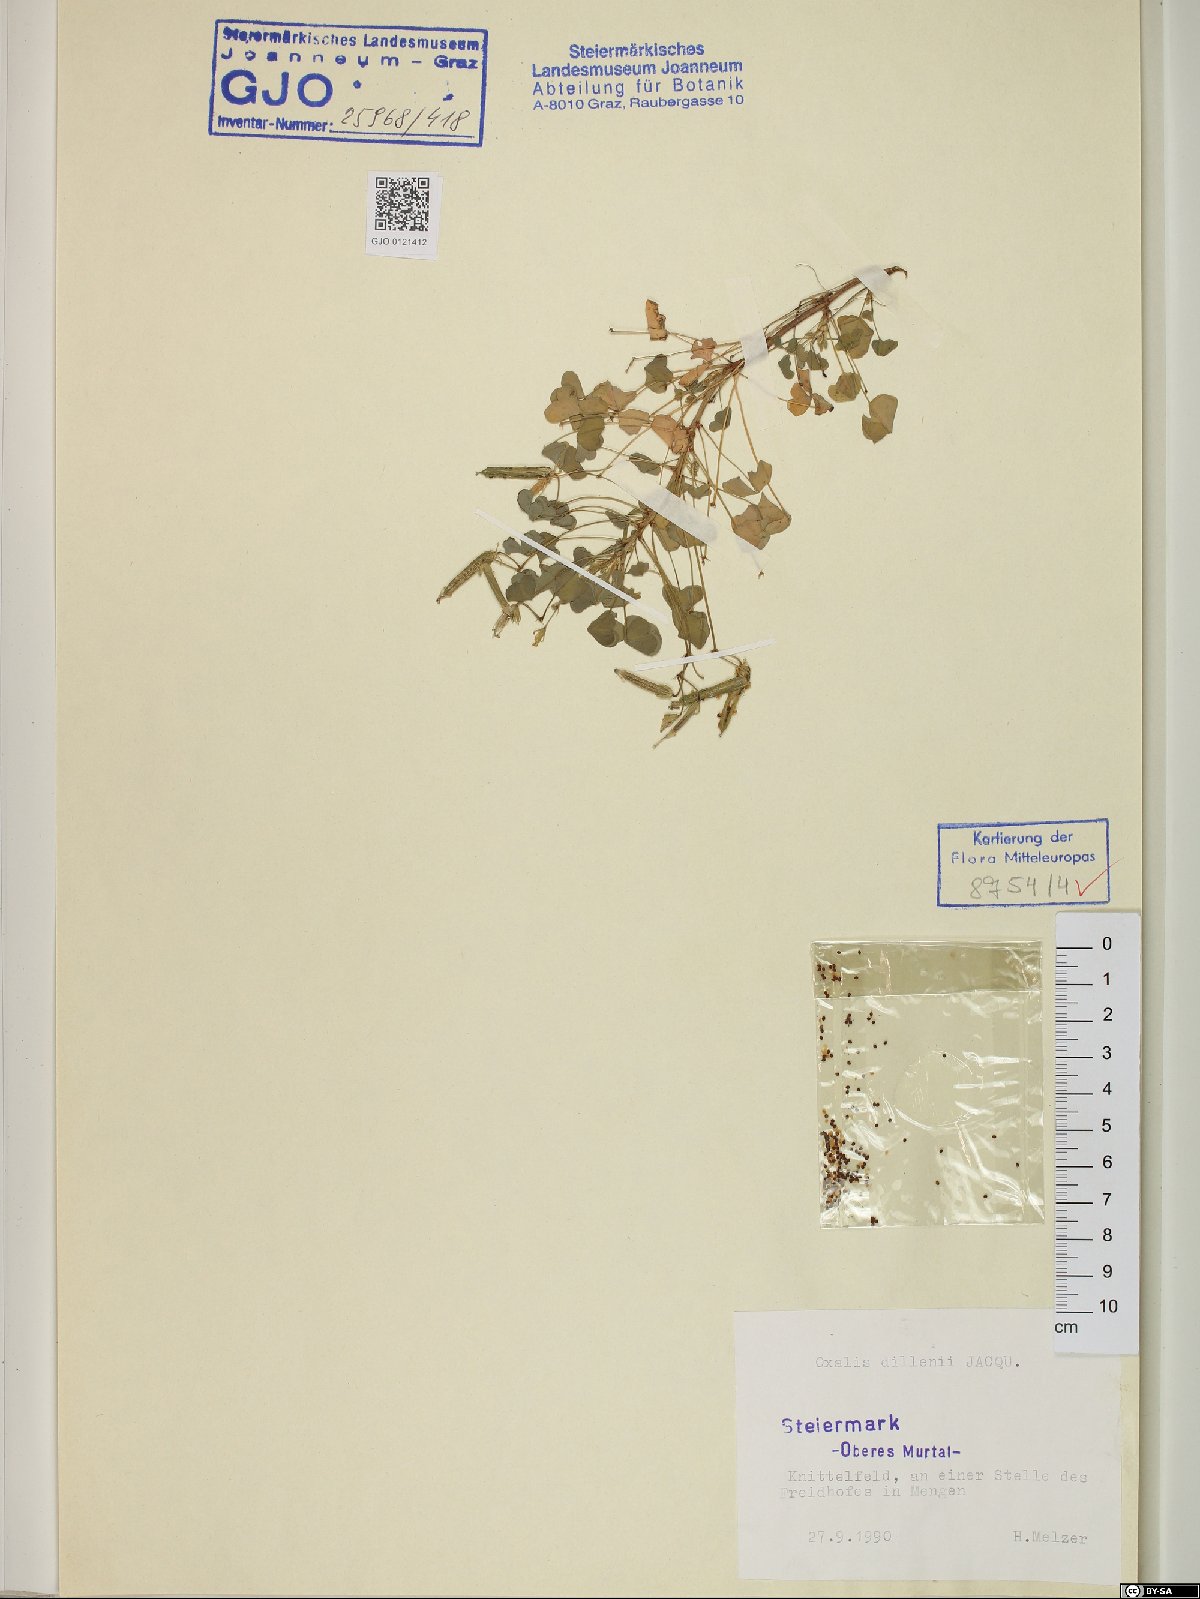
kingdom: Plantae
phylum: Tracheophyta
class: Magnoliopsida
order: Oxalidales
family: Oxalidaceae
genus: Oxalis
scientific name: Oxalis dillenii
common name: Sussex yellow-sorrel
